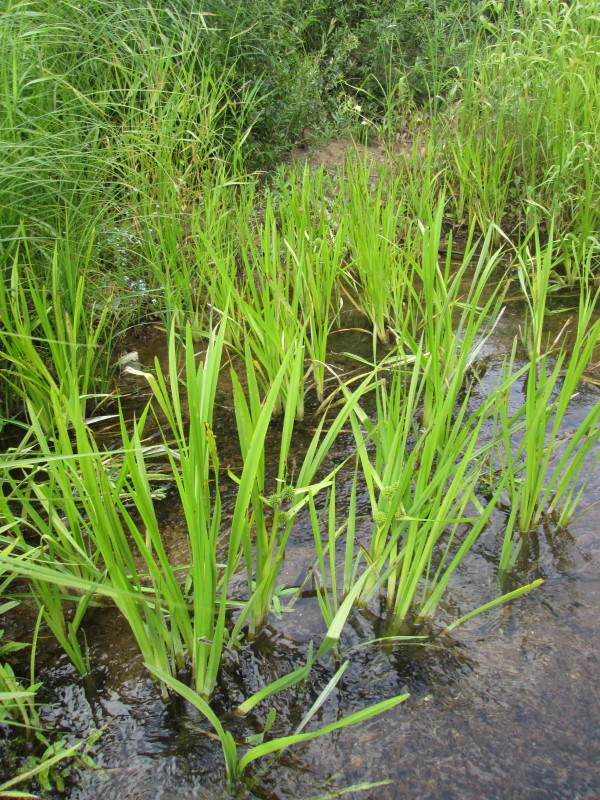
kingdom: Plantae
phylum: Tracheophyta
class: Liliopsida
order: Poales
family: Typhaceae
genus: Sparganium
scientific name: Sparganium erectum
